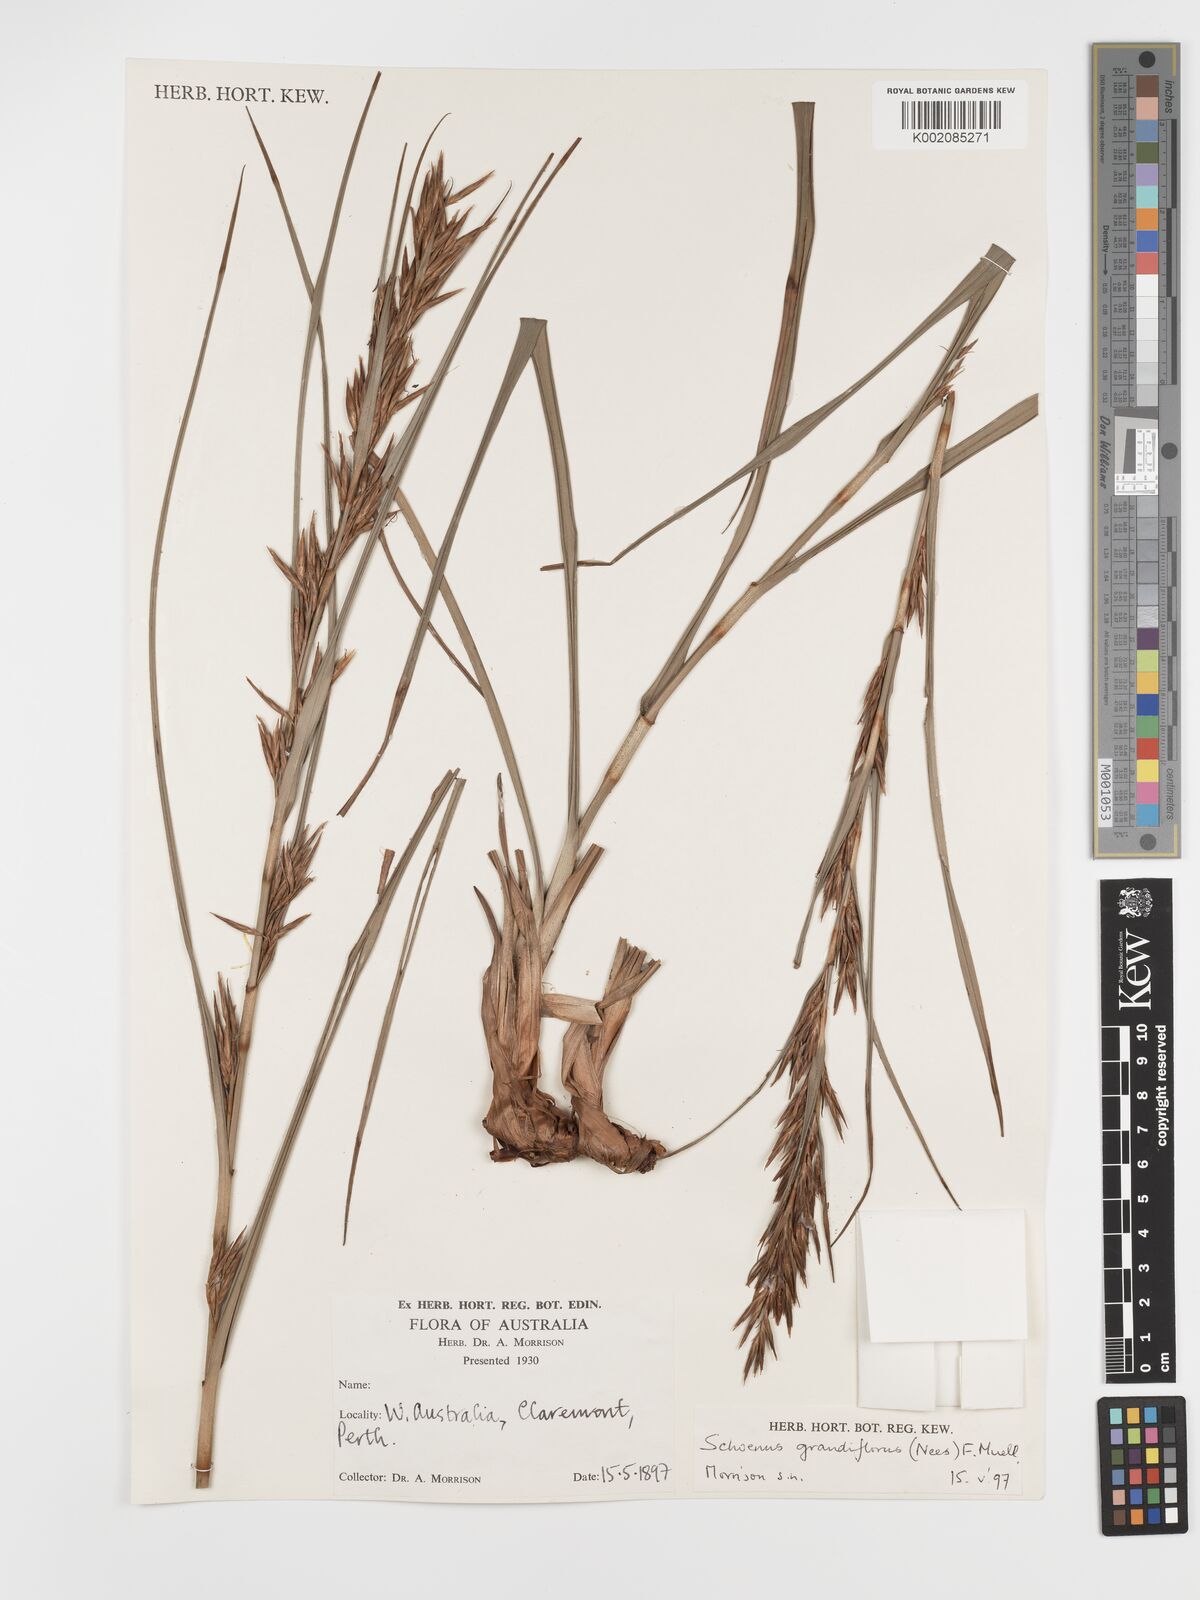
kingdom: Plantae
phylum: Tracheophyta
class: Liliopsida
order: Poales
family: Cyperaceae
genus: Schoenus
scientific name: Schoenus grandiflorus
